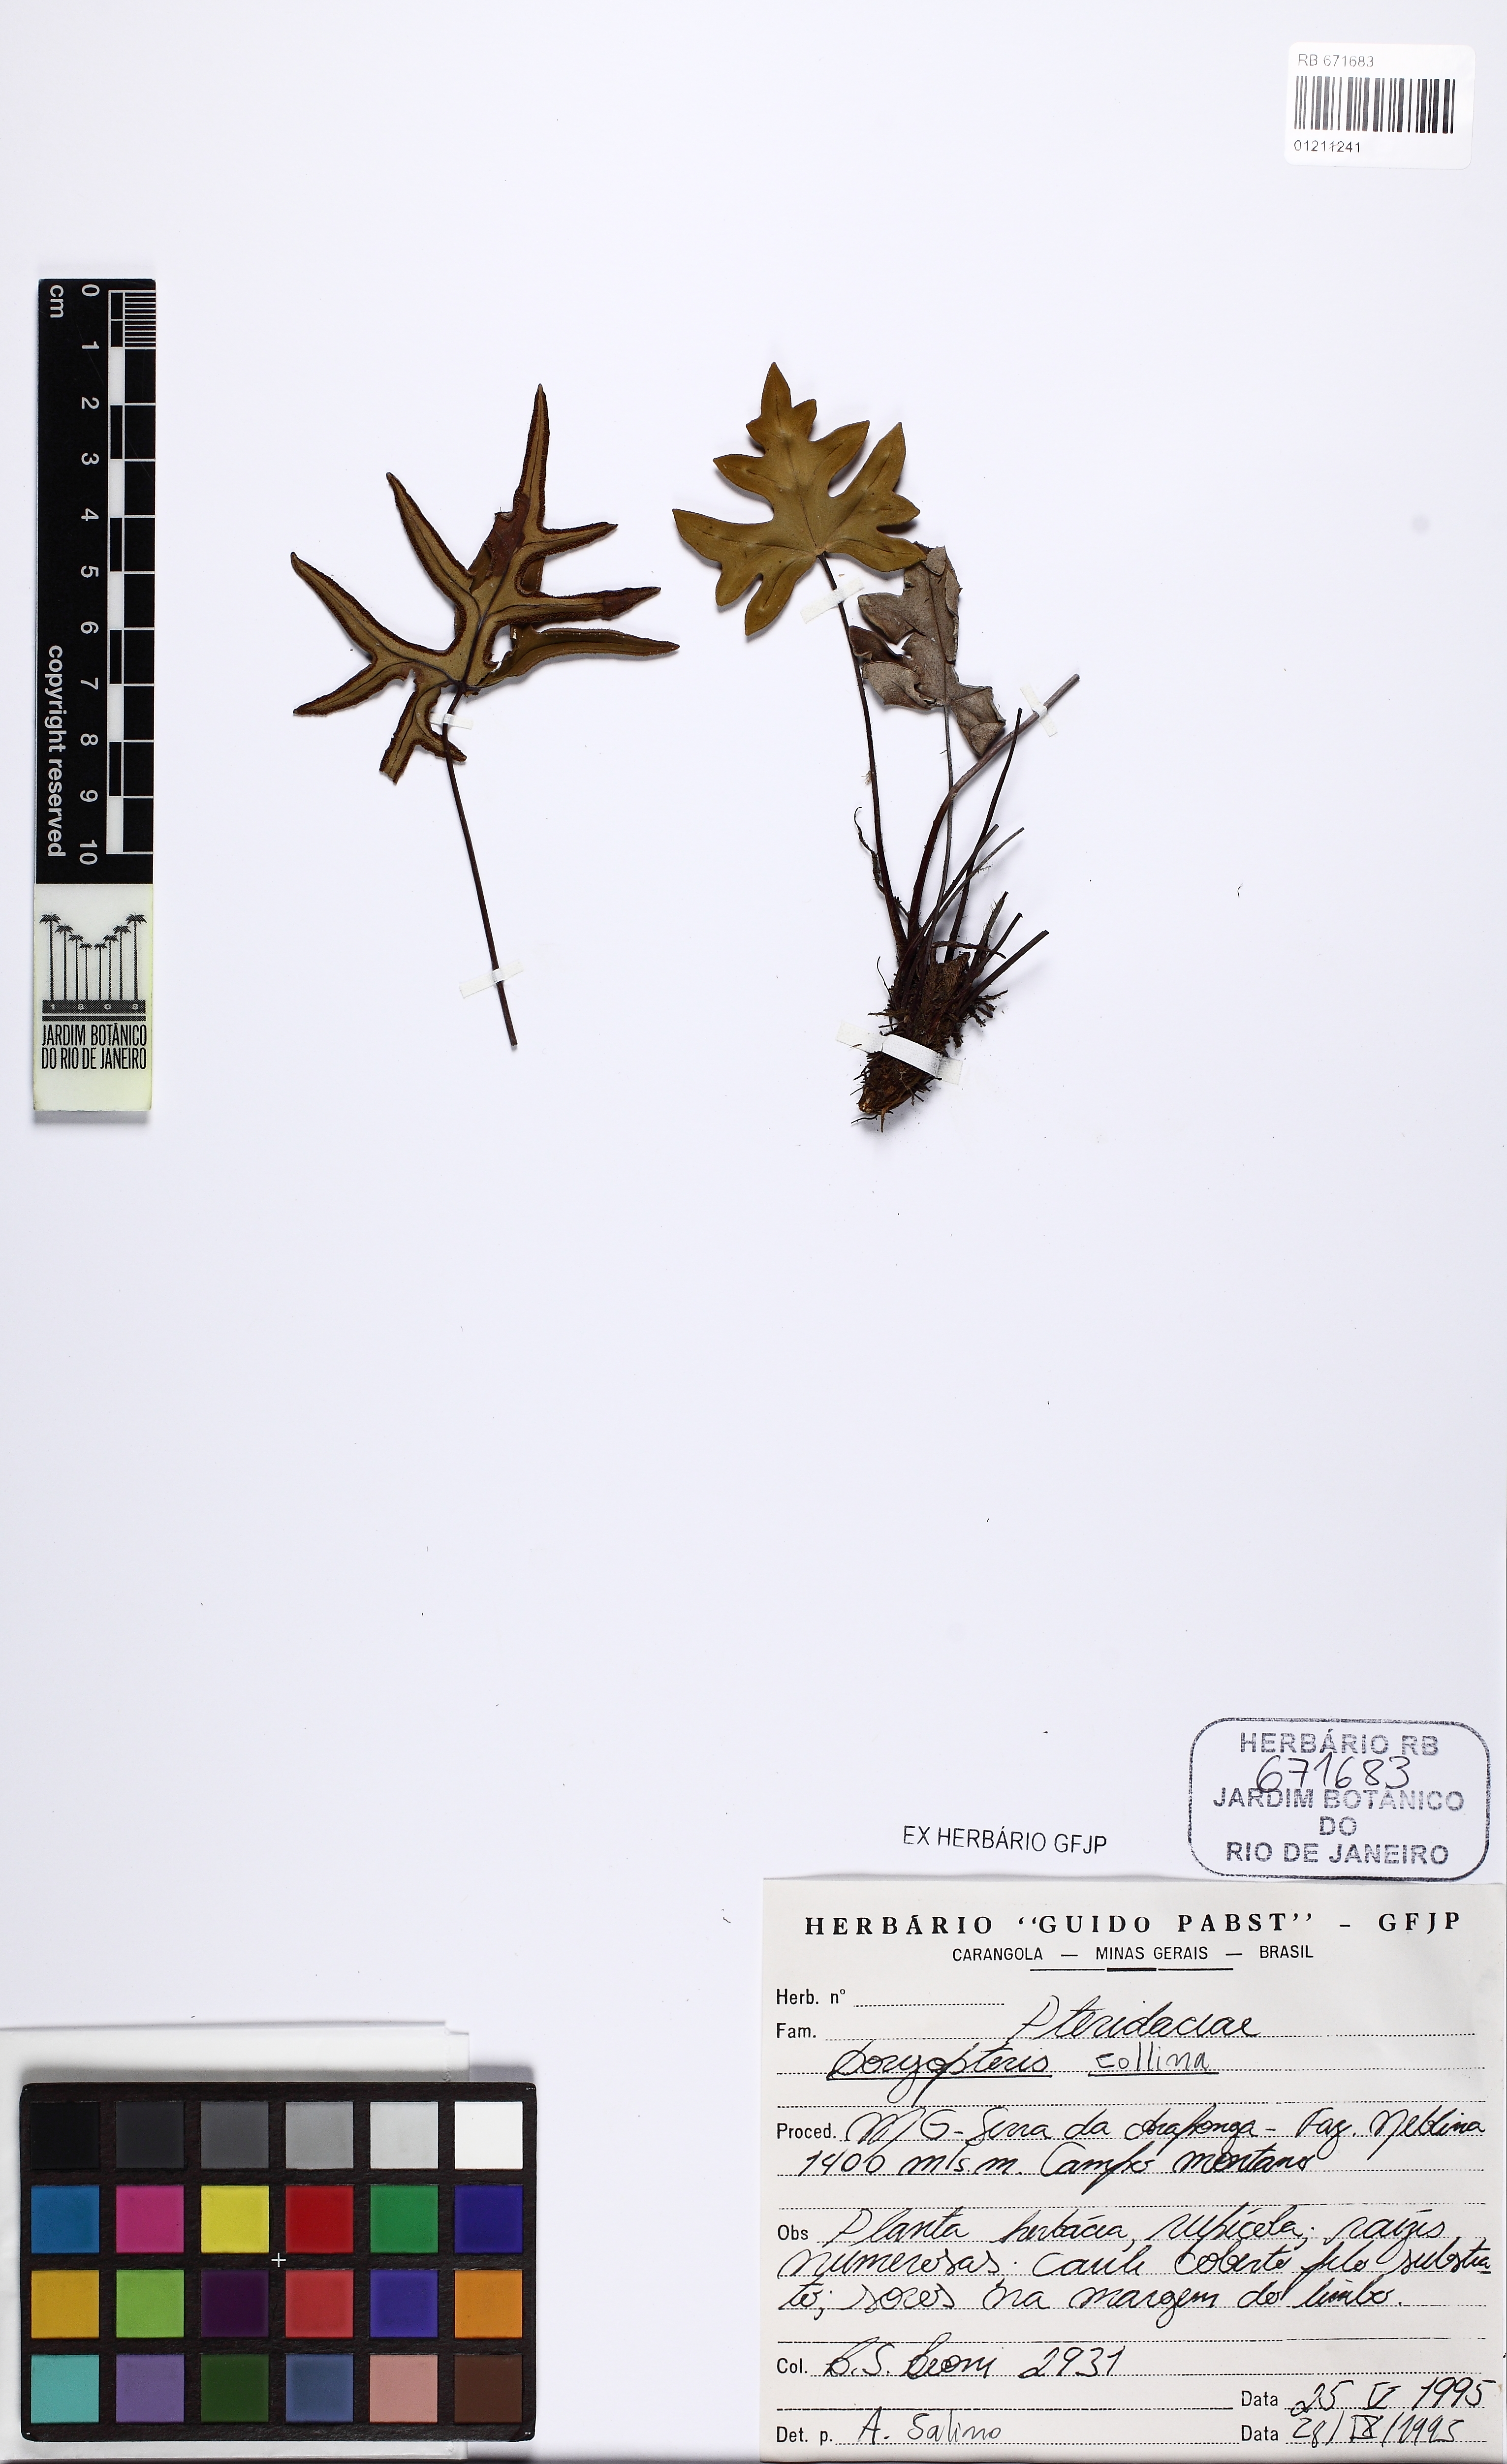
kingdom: Plantae
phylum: Tracheophyta
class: Polypodiopsida
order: Polypodiales
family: Pteridaceae
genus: Doryopteris
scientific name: Doryopteris collina
